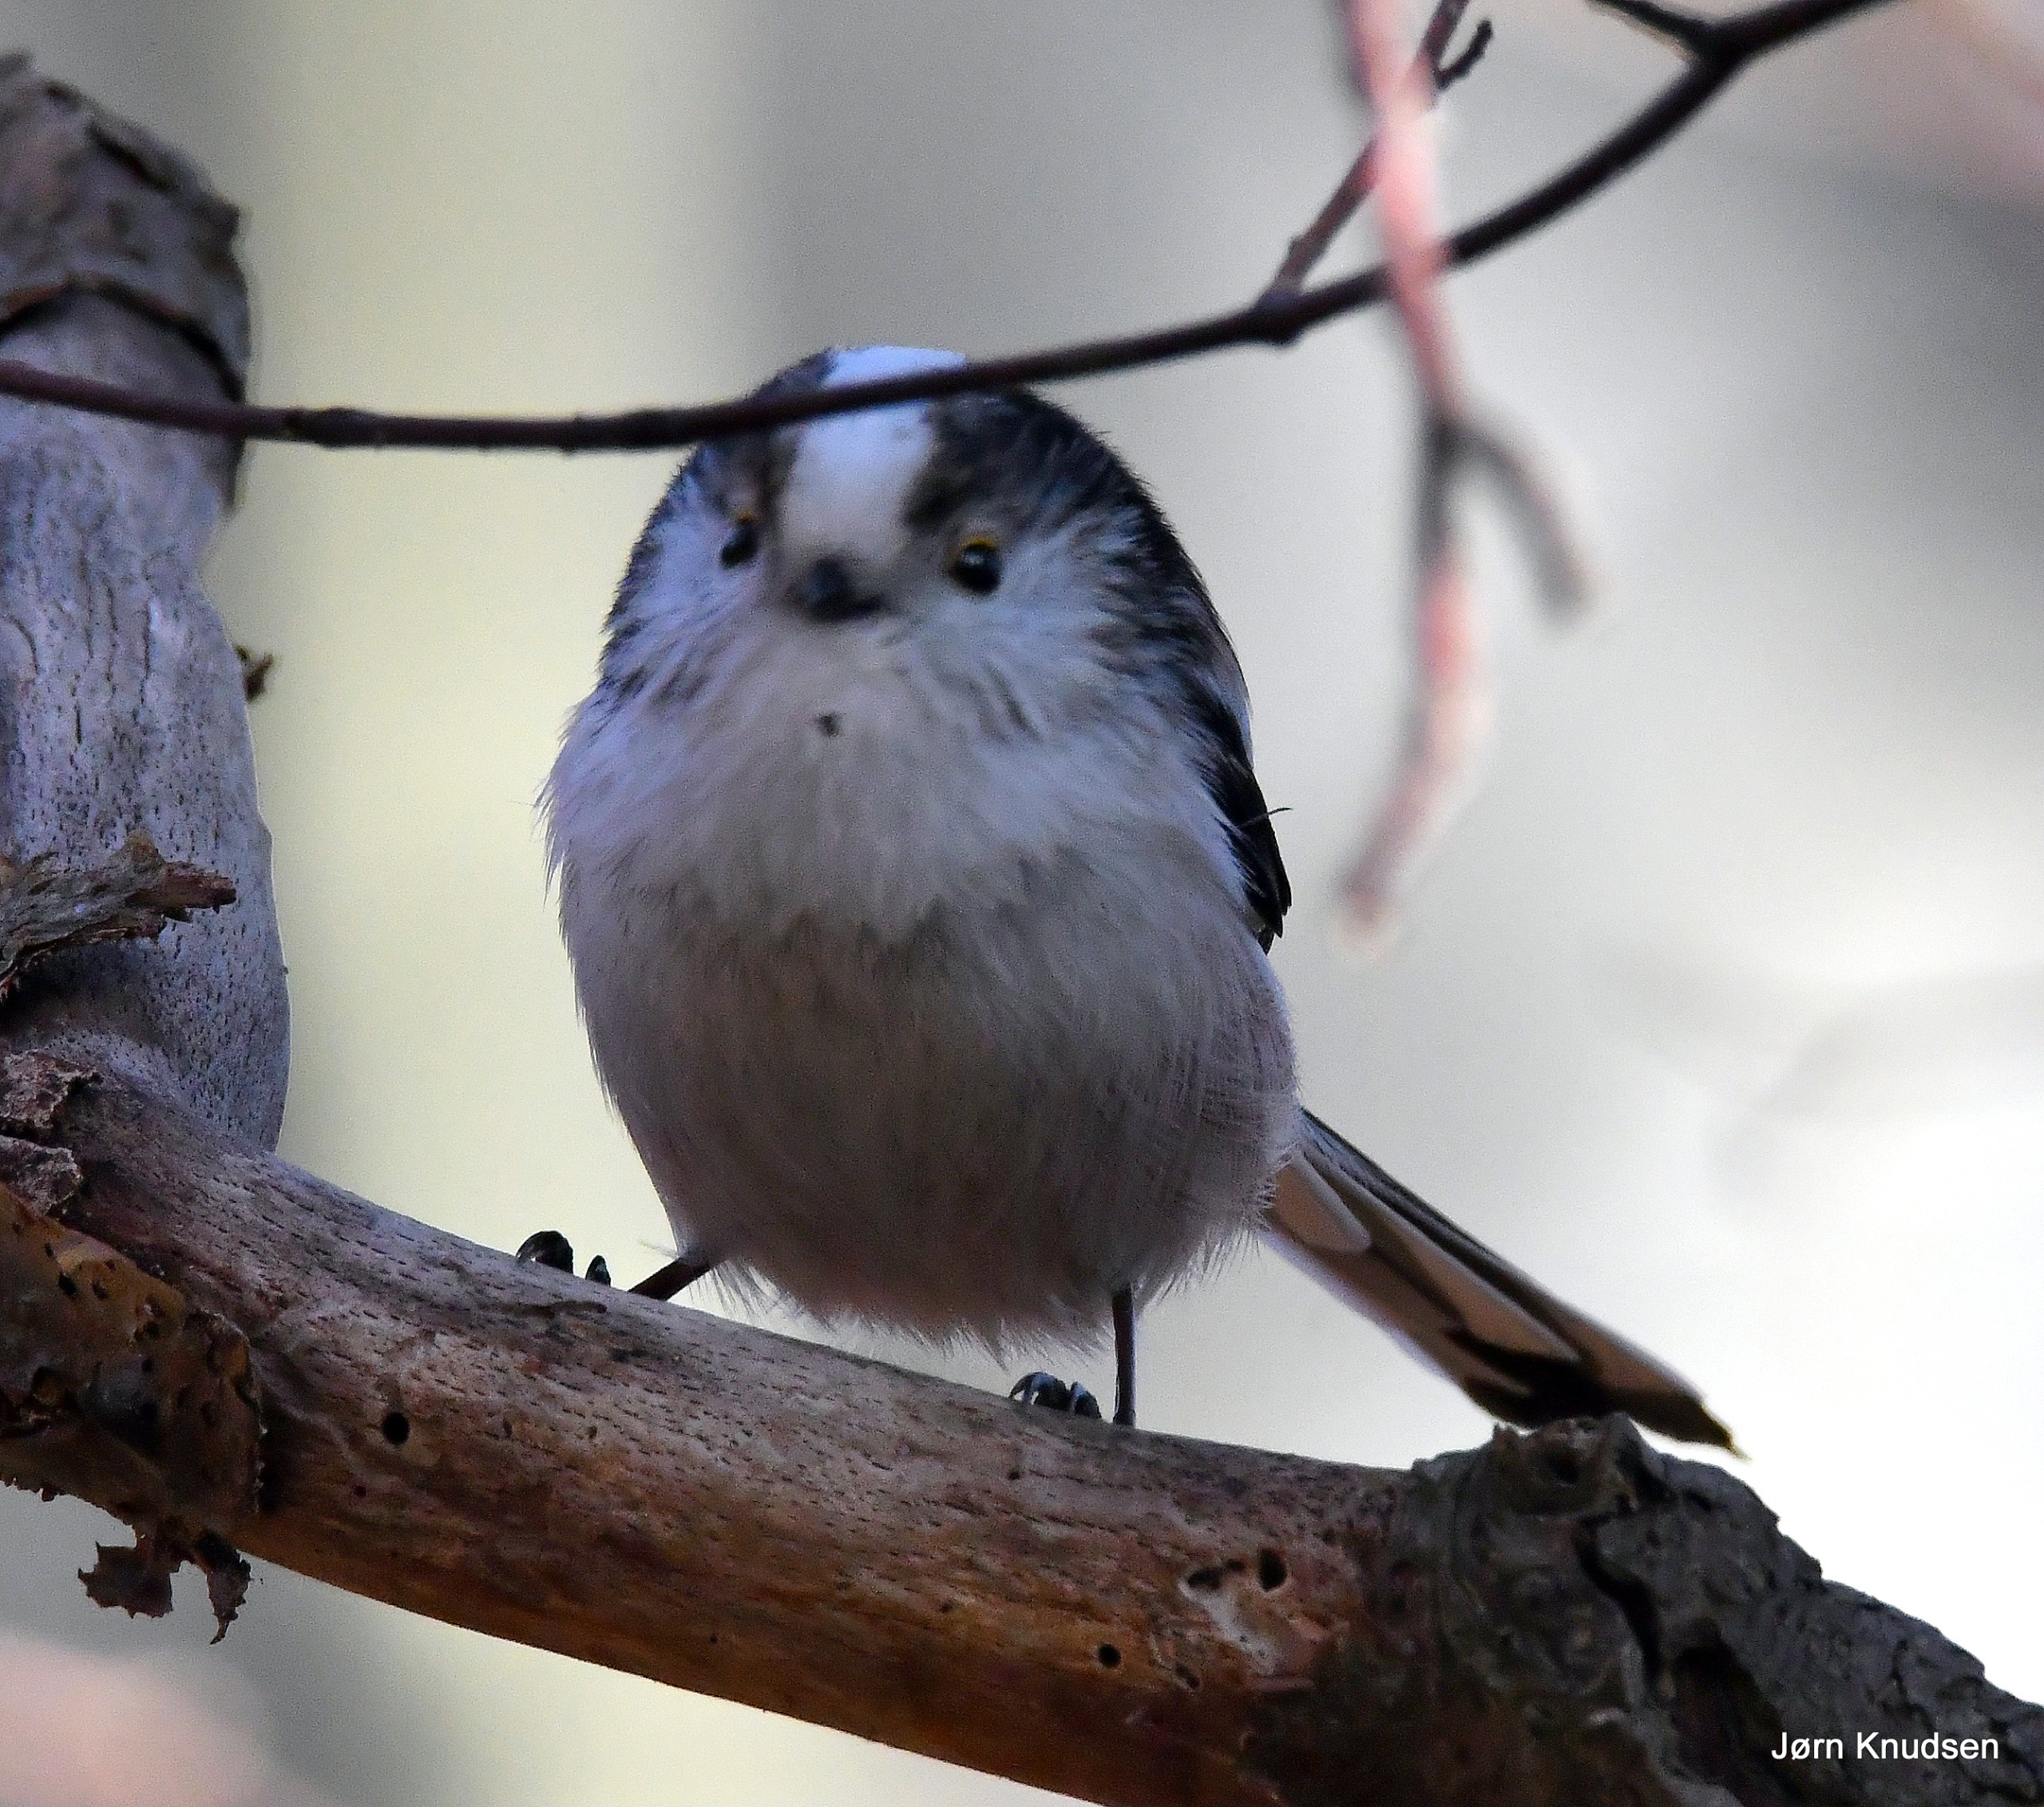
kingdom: Animalia
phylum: Chordata
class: Aves
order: Passeriformes
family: Aegithalidae
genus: Aegithalos
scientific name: Aegithalos caudatus
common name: Halemejse
